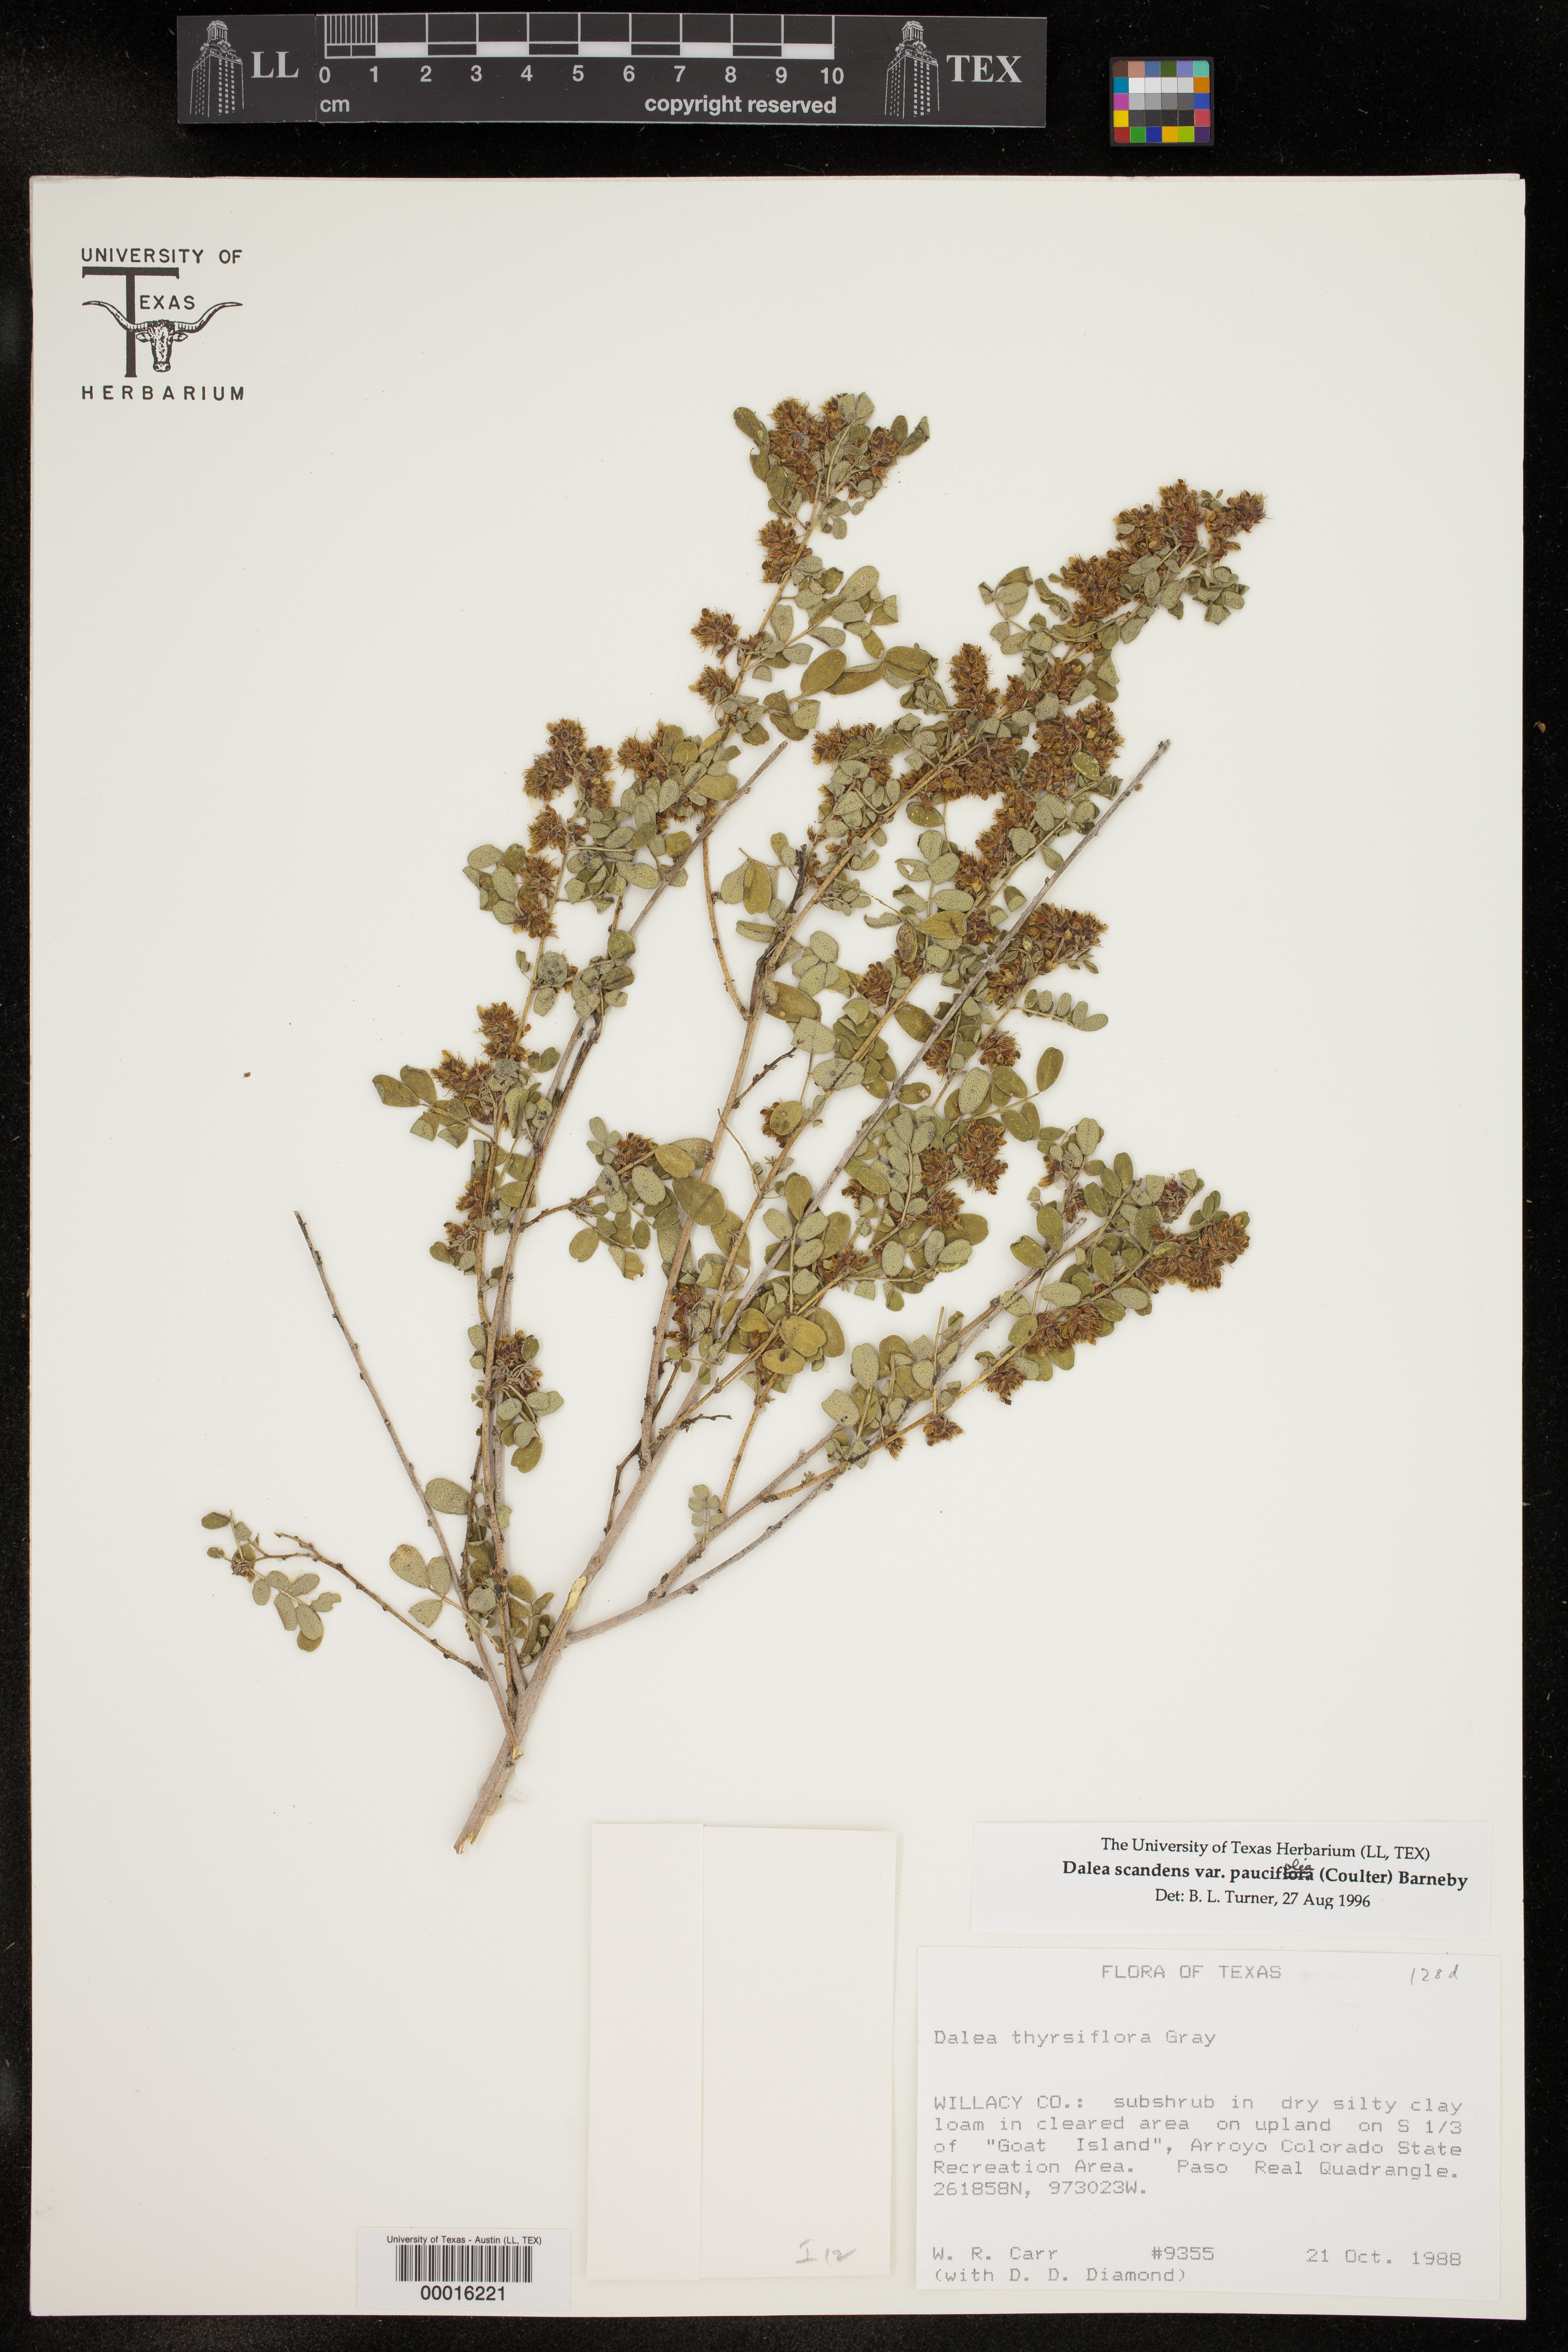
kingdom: Plantae
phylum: Tracheophyta
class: Magnoliopsida
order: Fabales
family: Fabaceae
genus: Dalea
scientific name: Dalea scandens
